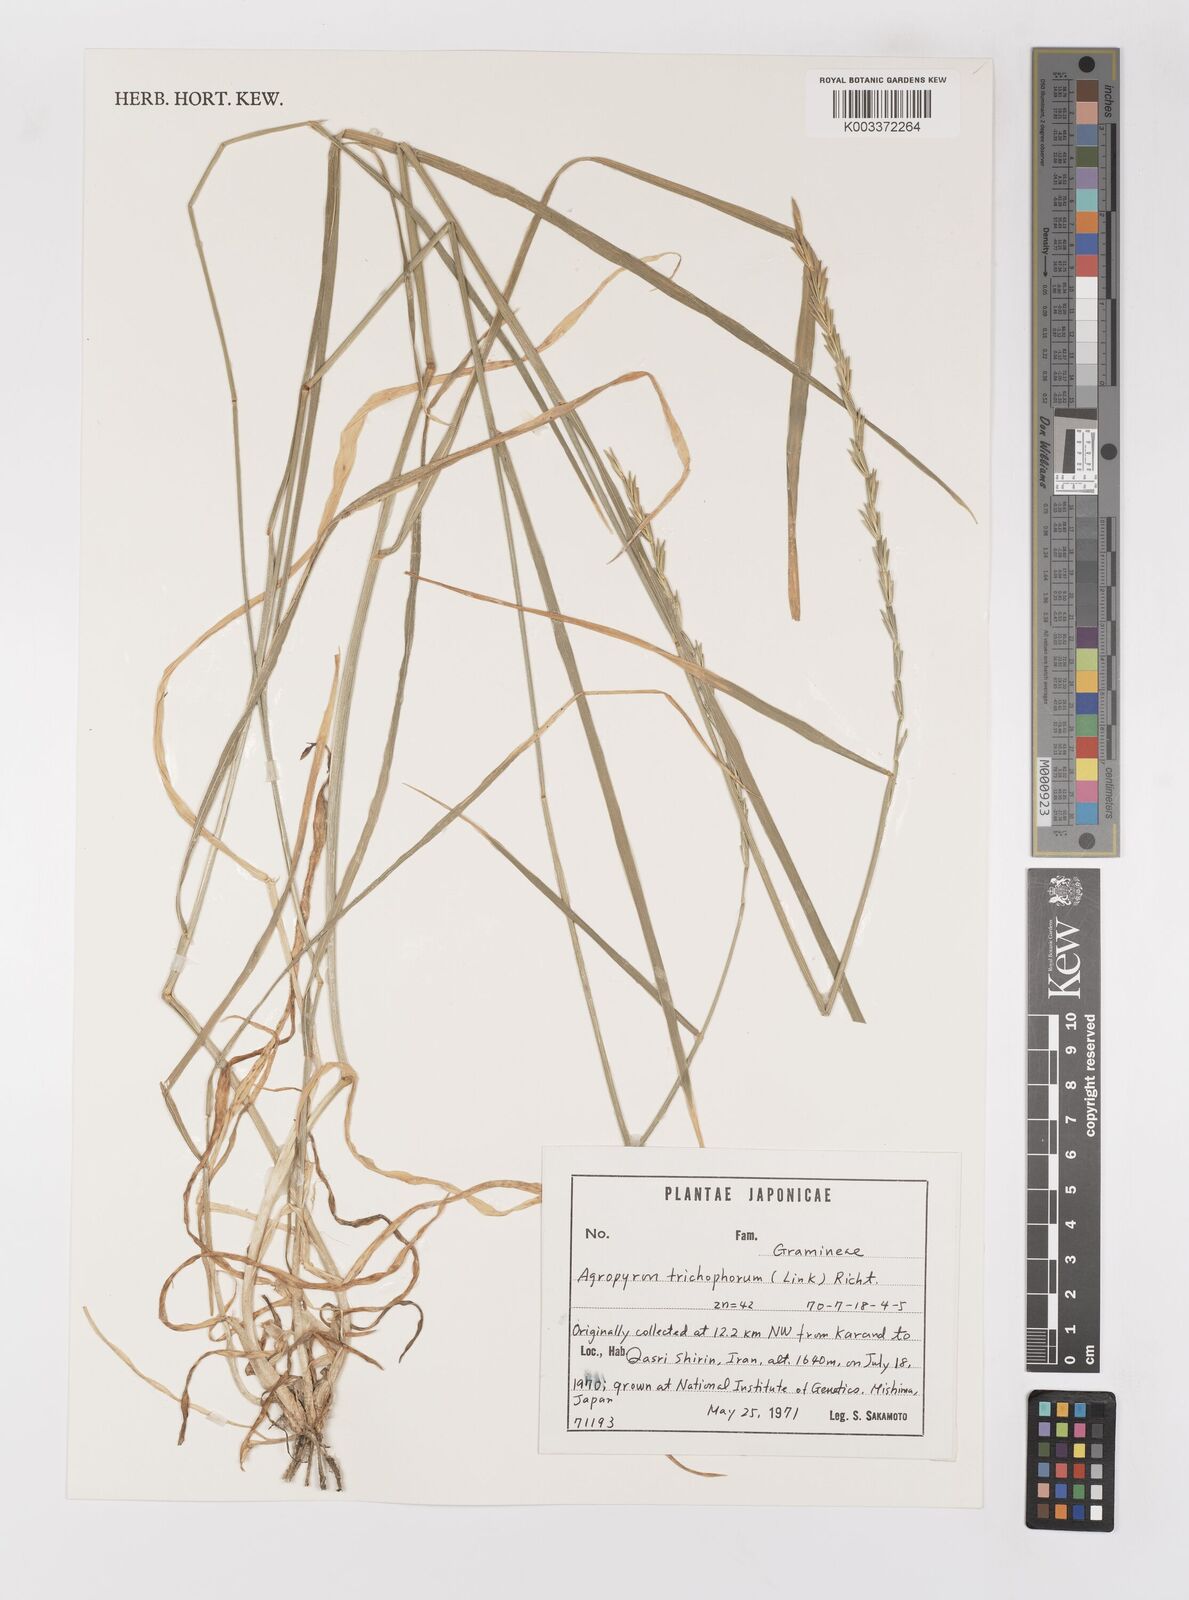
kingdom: Plantae
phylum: Tracheophyta
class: Liliopsida
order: Poales
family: Poaceae
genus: Elymus
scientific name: Elymus trichospicula
